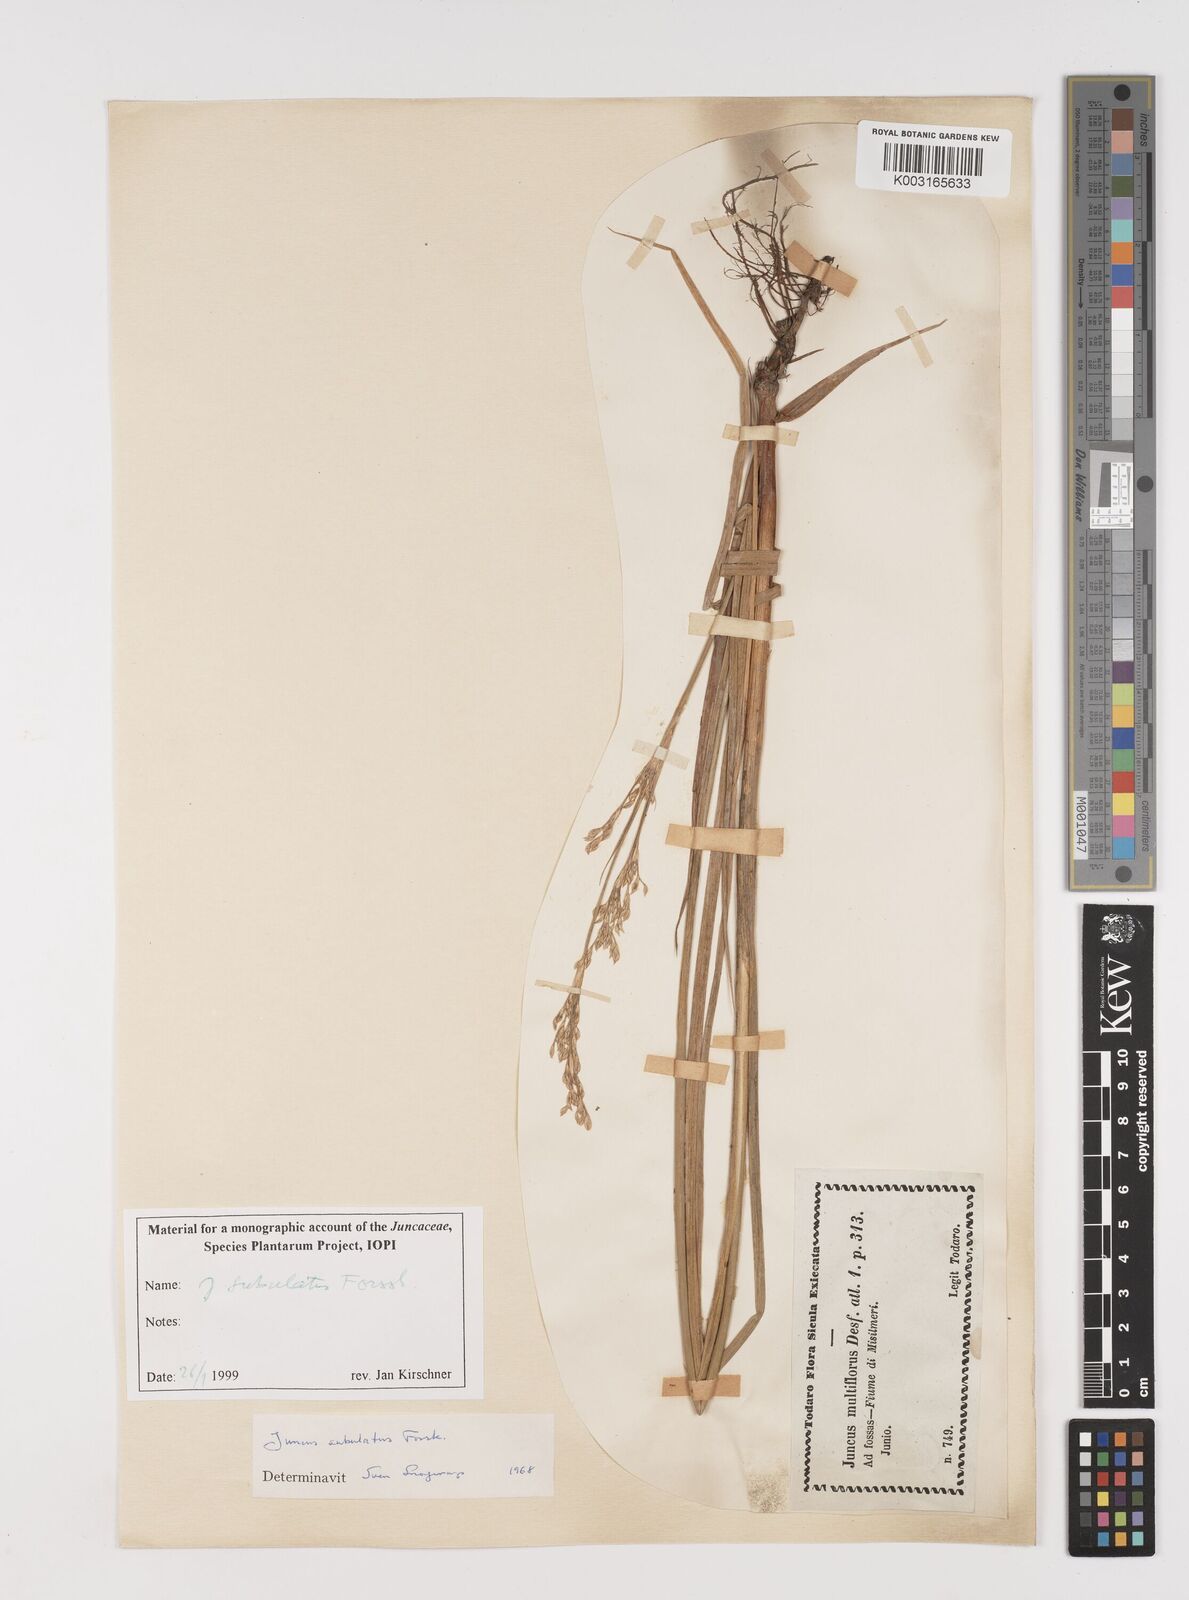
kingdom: Plantae
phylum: Tracheophyta
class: Liliopsida
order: Poales
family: Juncaceae
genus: Juncus
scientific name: Juncus subulatus
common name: Somerset rush
